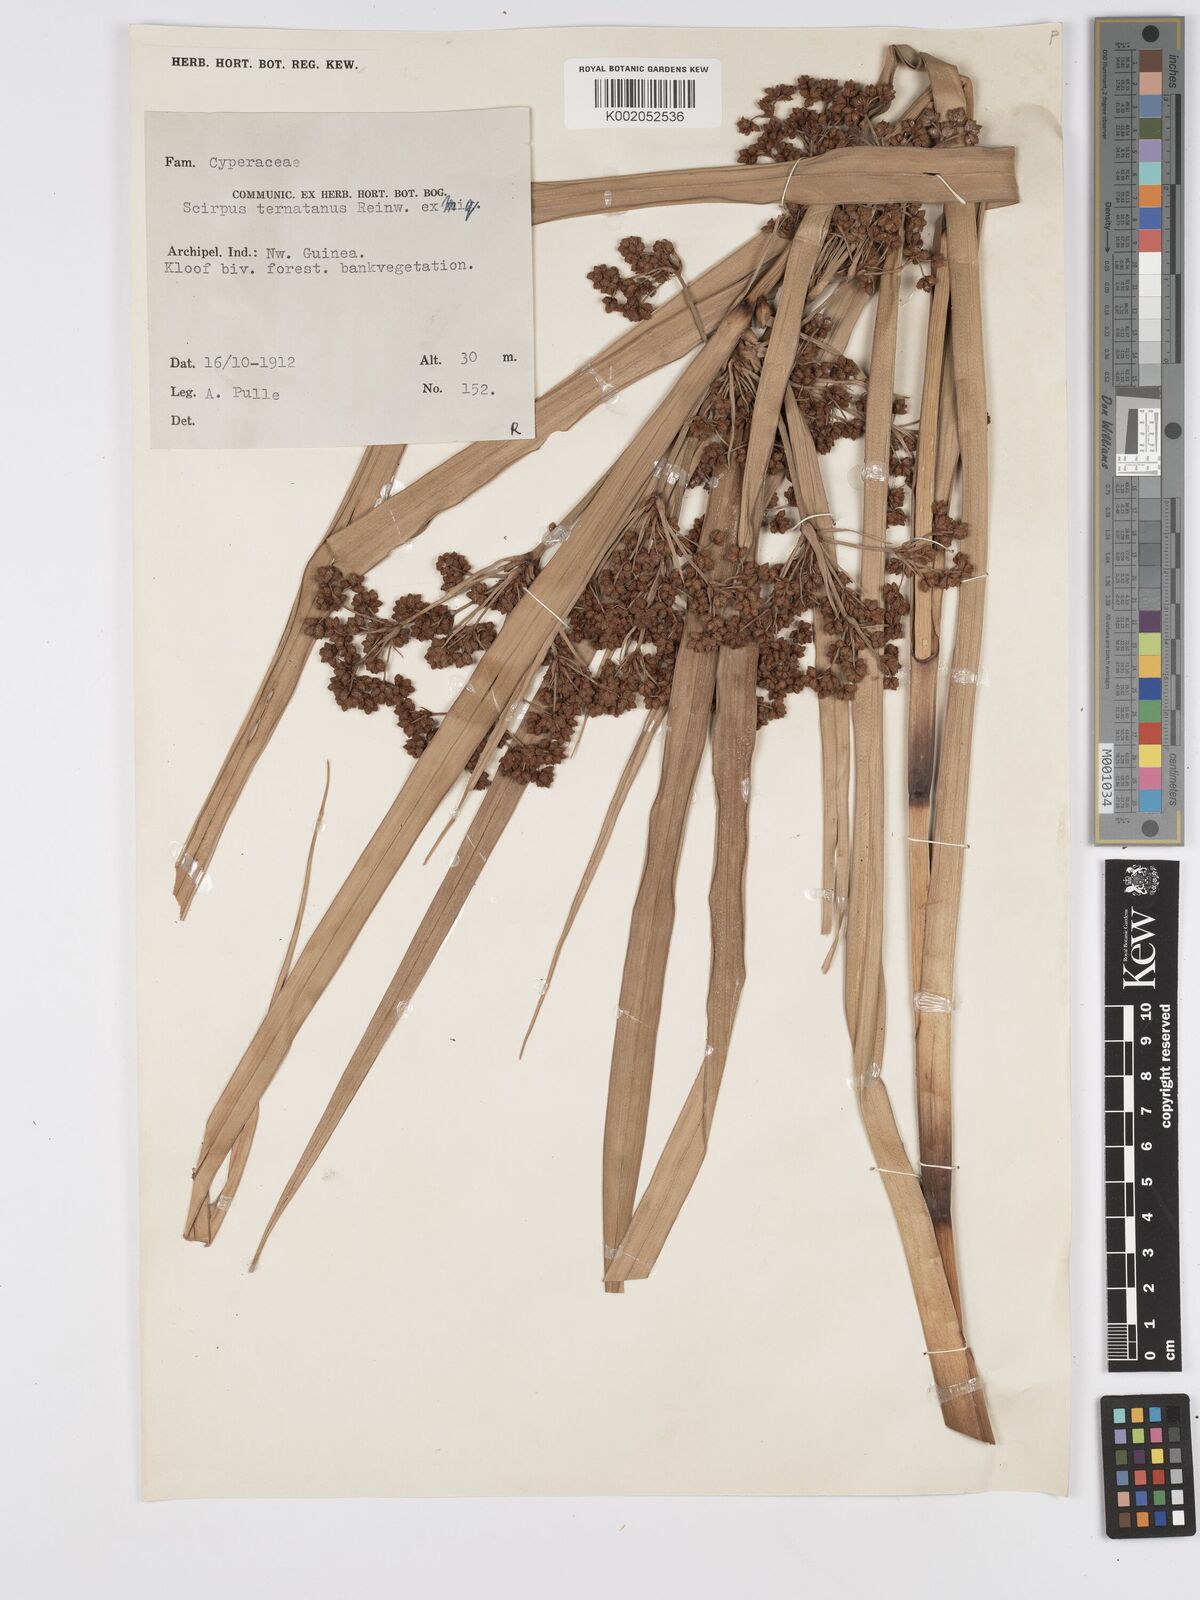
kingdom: Plantae
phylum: Tracheophyta
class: Liliopsida
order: Poales
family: Cyperaceae
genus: Scirpus
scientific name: Scirpus ternatanus
